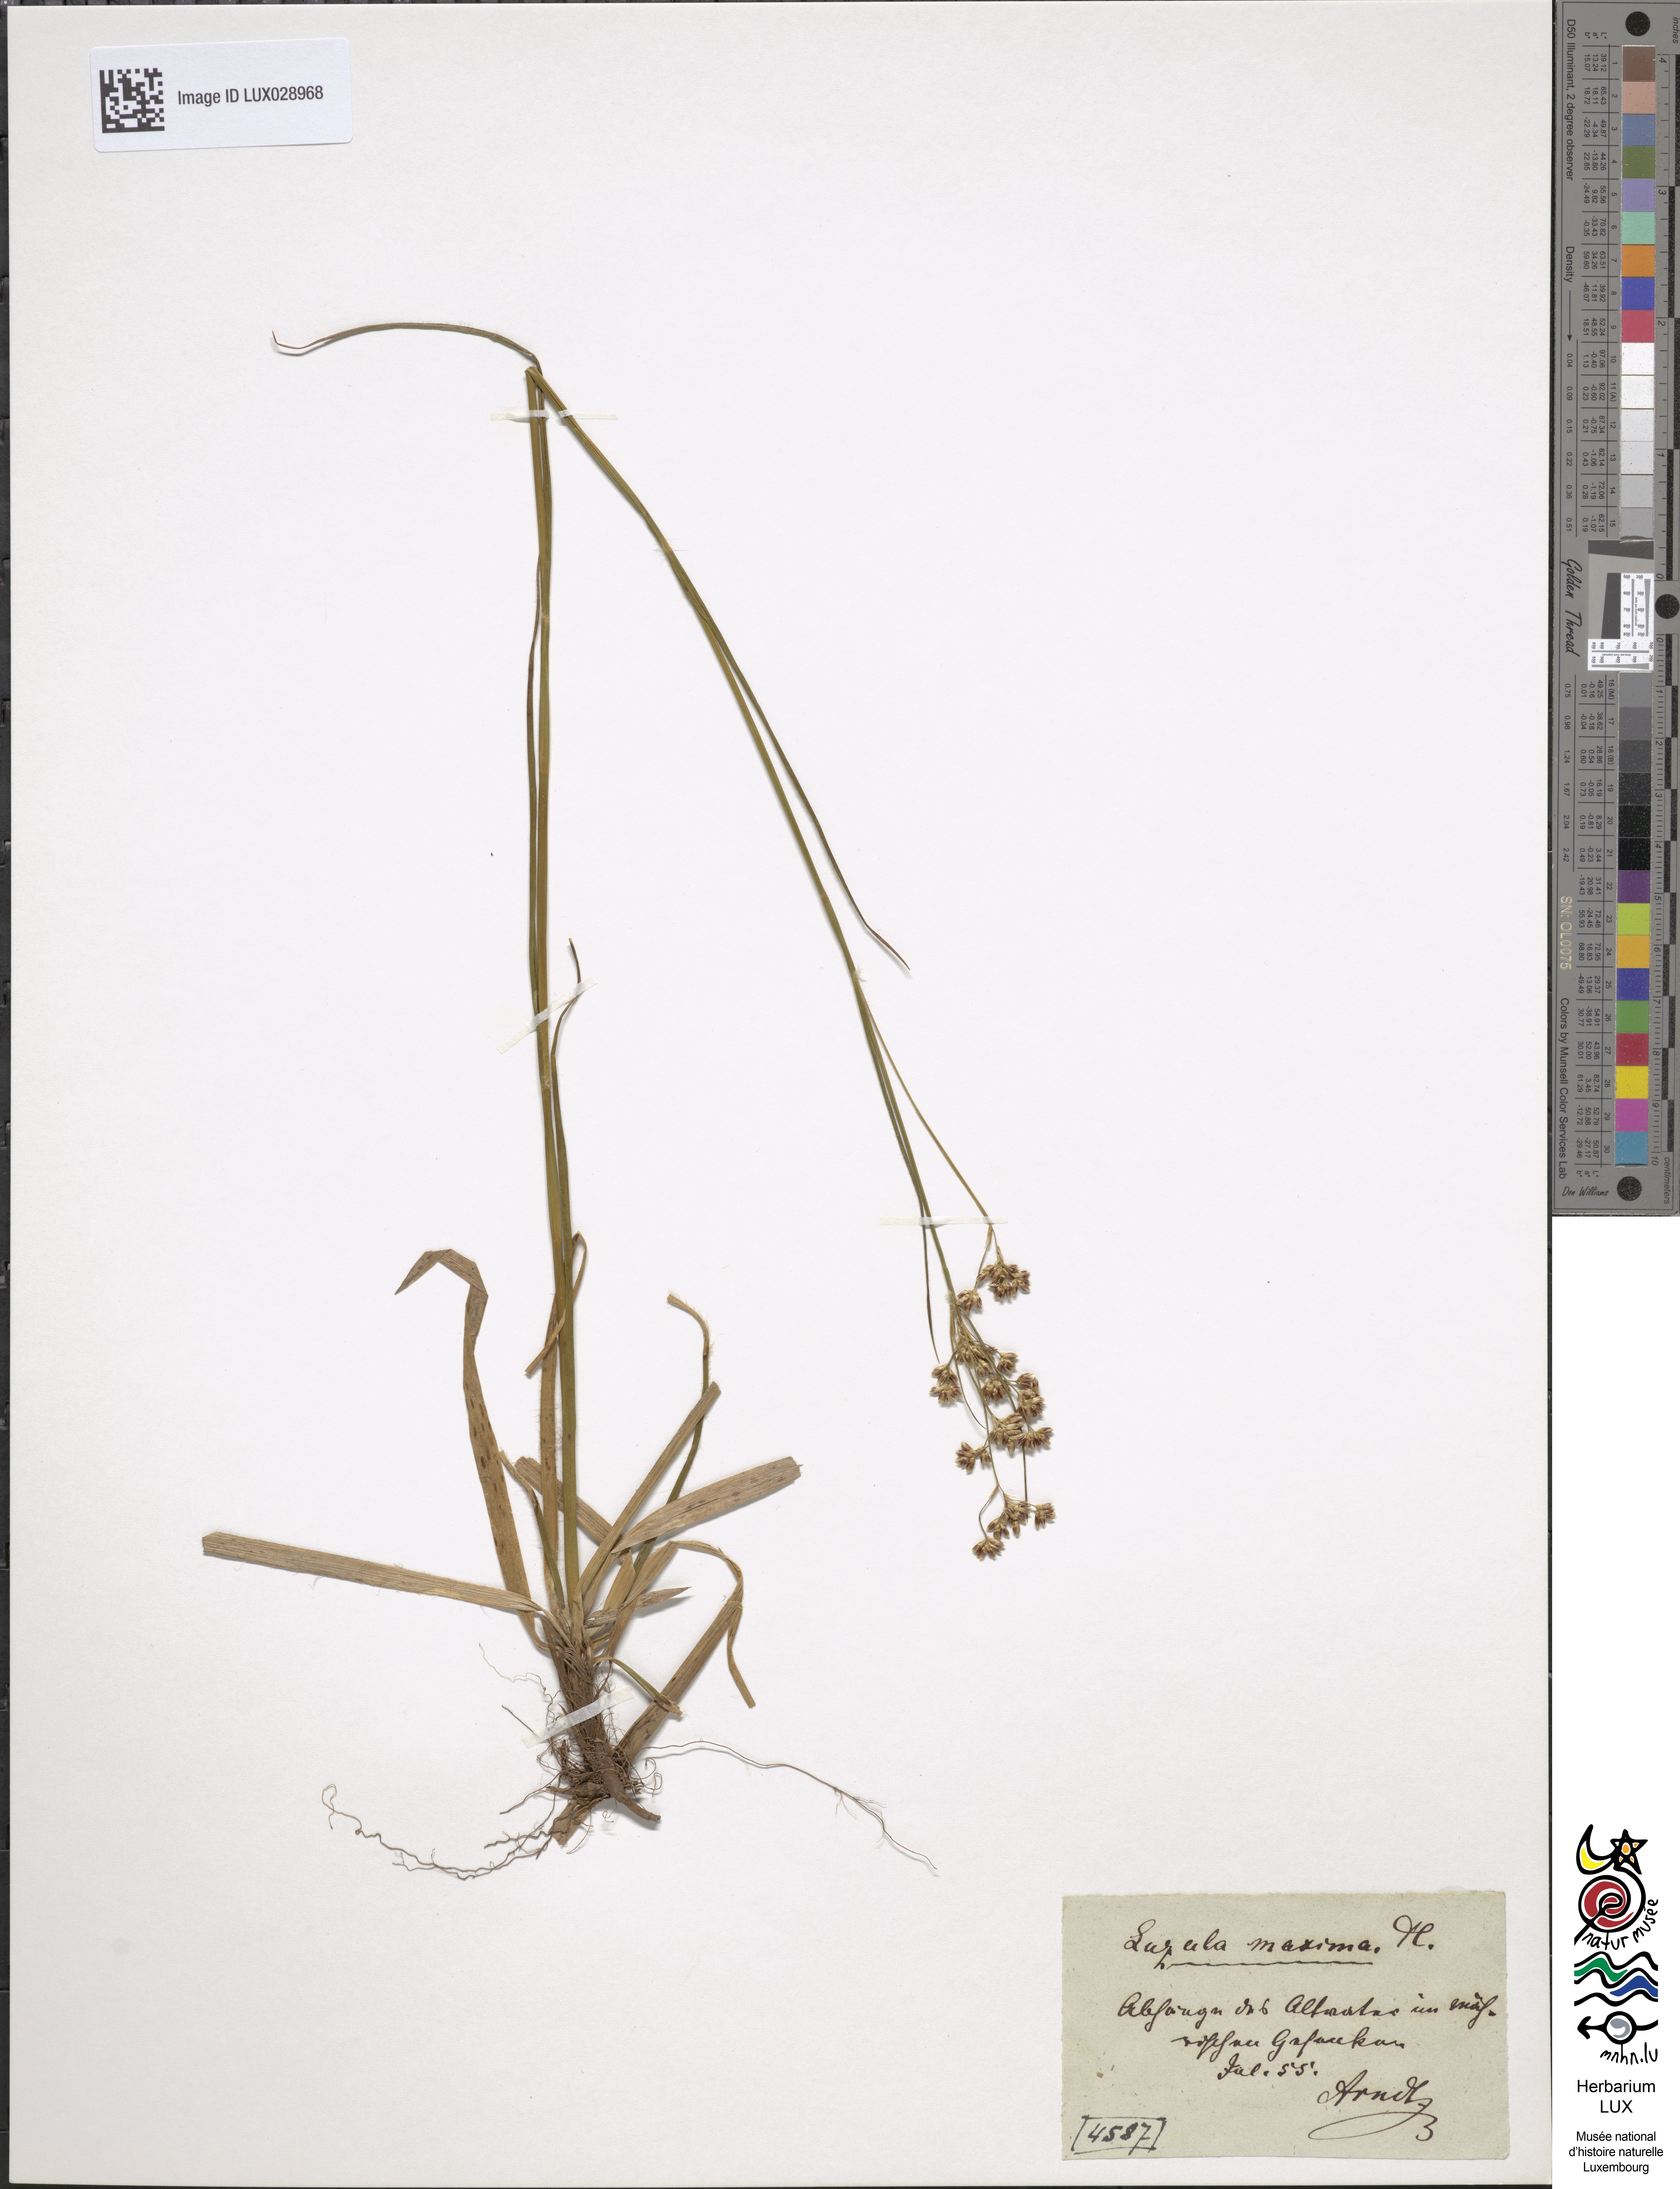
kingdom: Plantae
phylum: Tracheophyta
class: Liliopsida
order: Poales
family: Juncaceae
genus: Luzula
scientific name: Luzula sylvatica
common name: Great wood-rush
